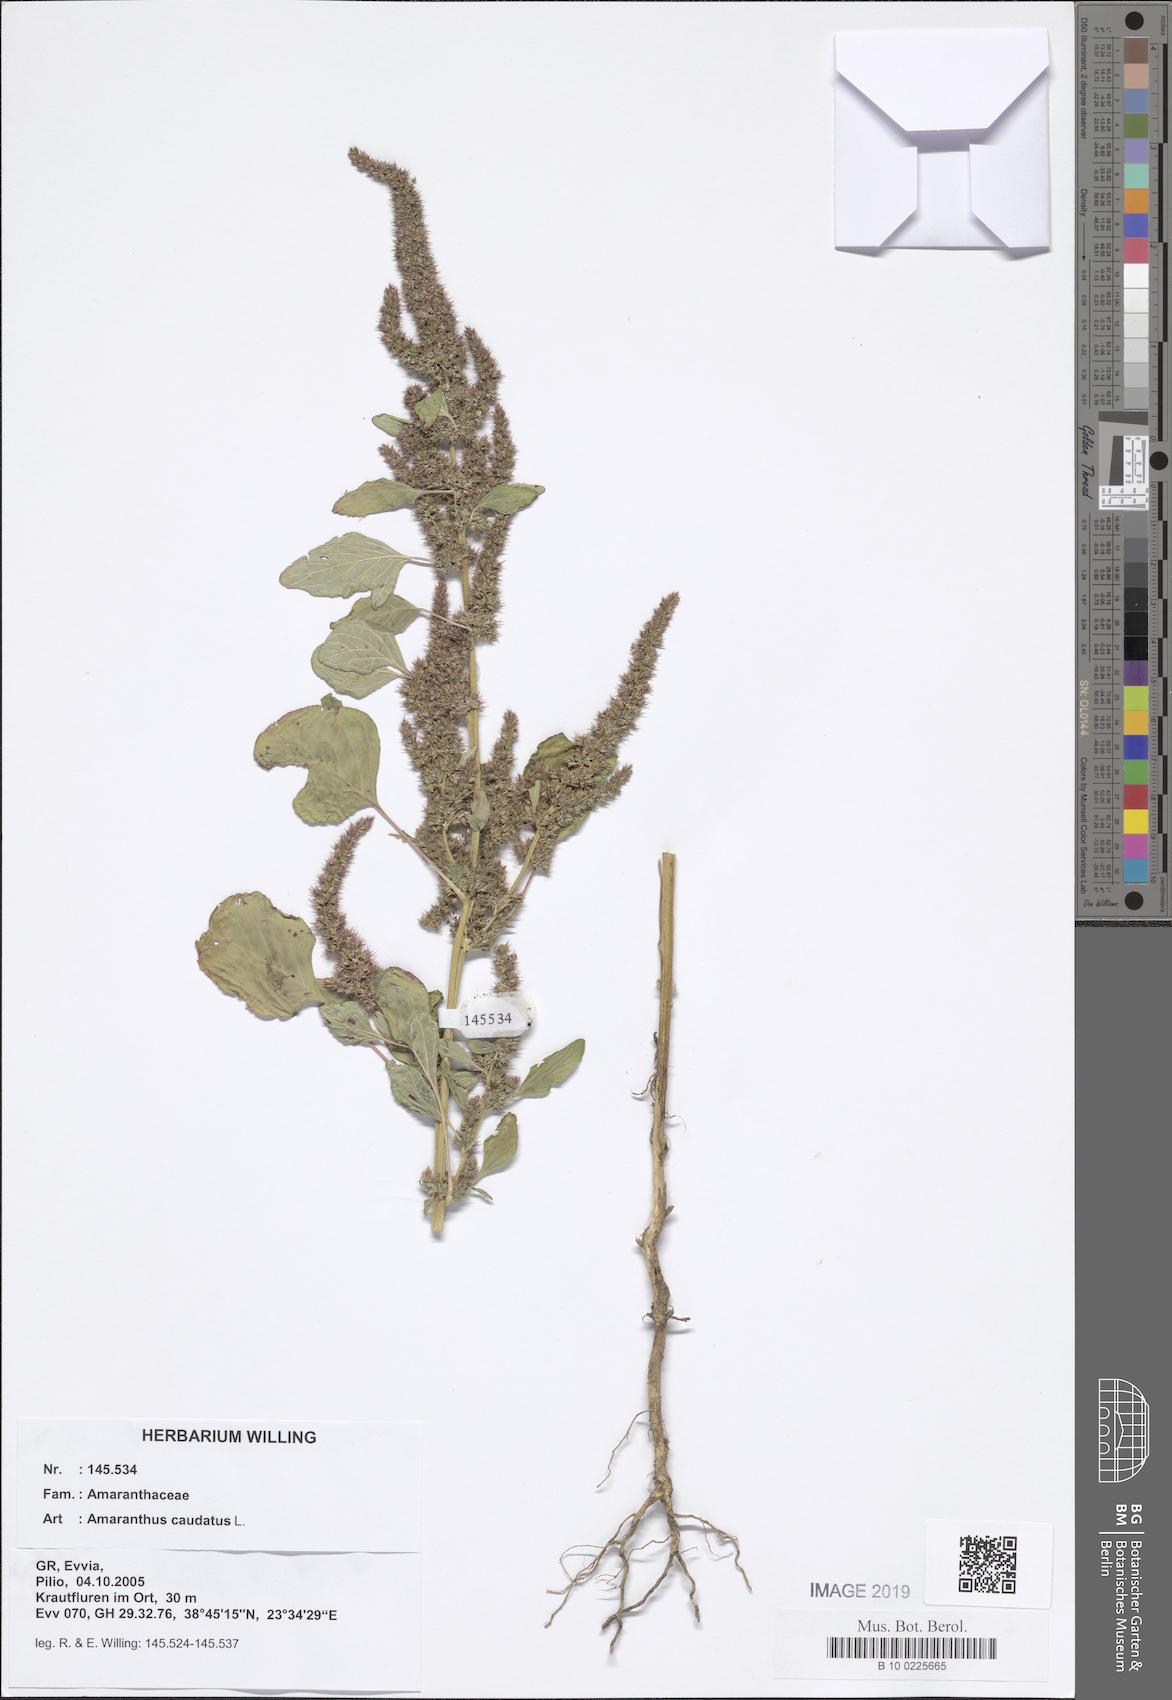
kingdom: Plantae
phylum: Tracheophyta
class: Magnoliopsida
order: Caryophyllales
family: Amaranthaceae
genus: Amaranthus
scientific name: Amaranthus caudatus
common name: Love-lies-bleeding
